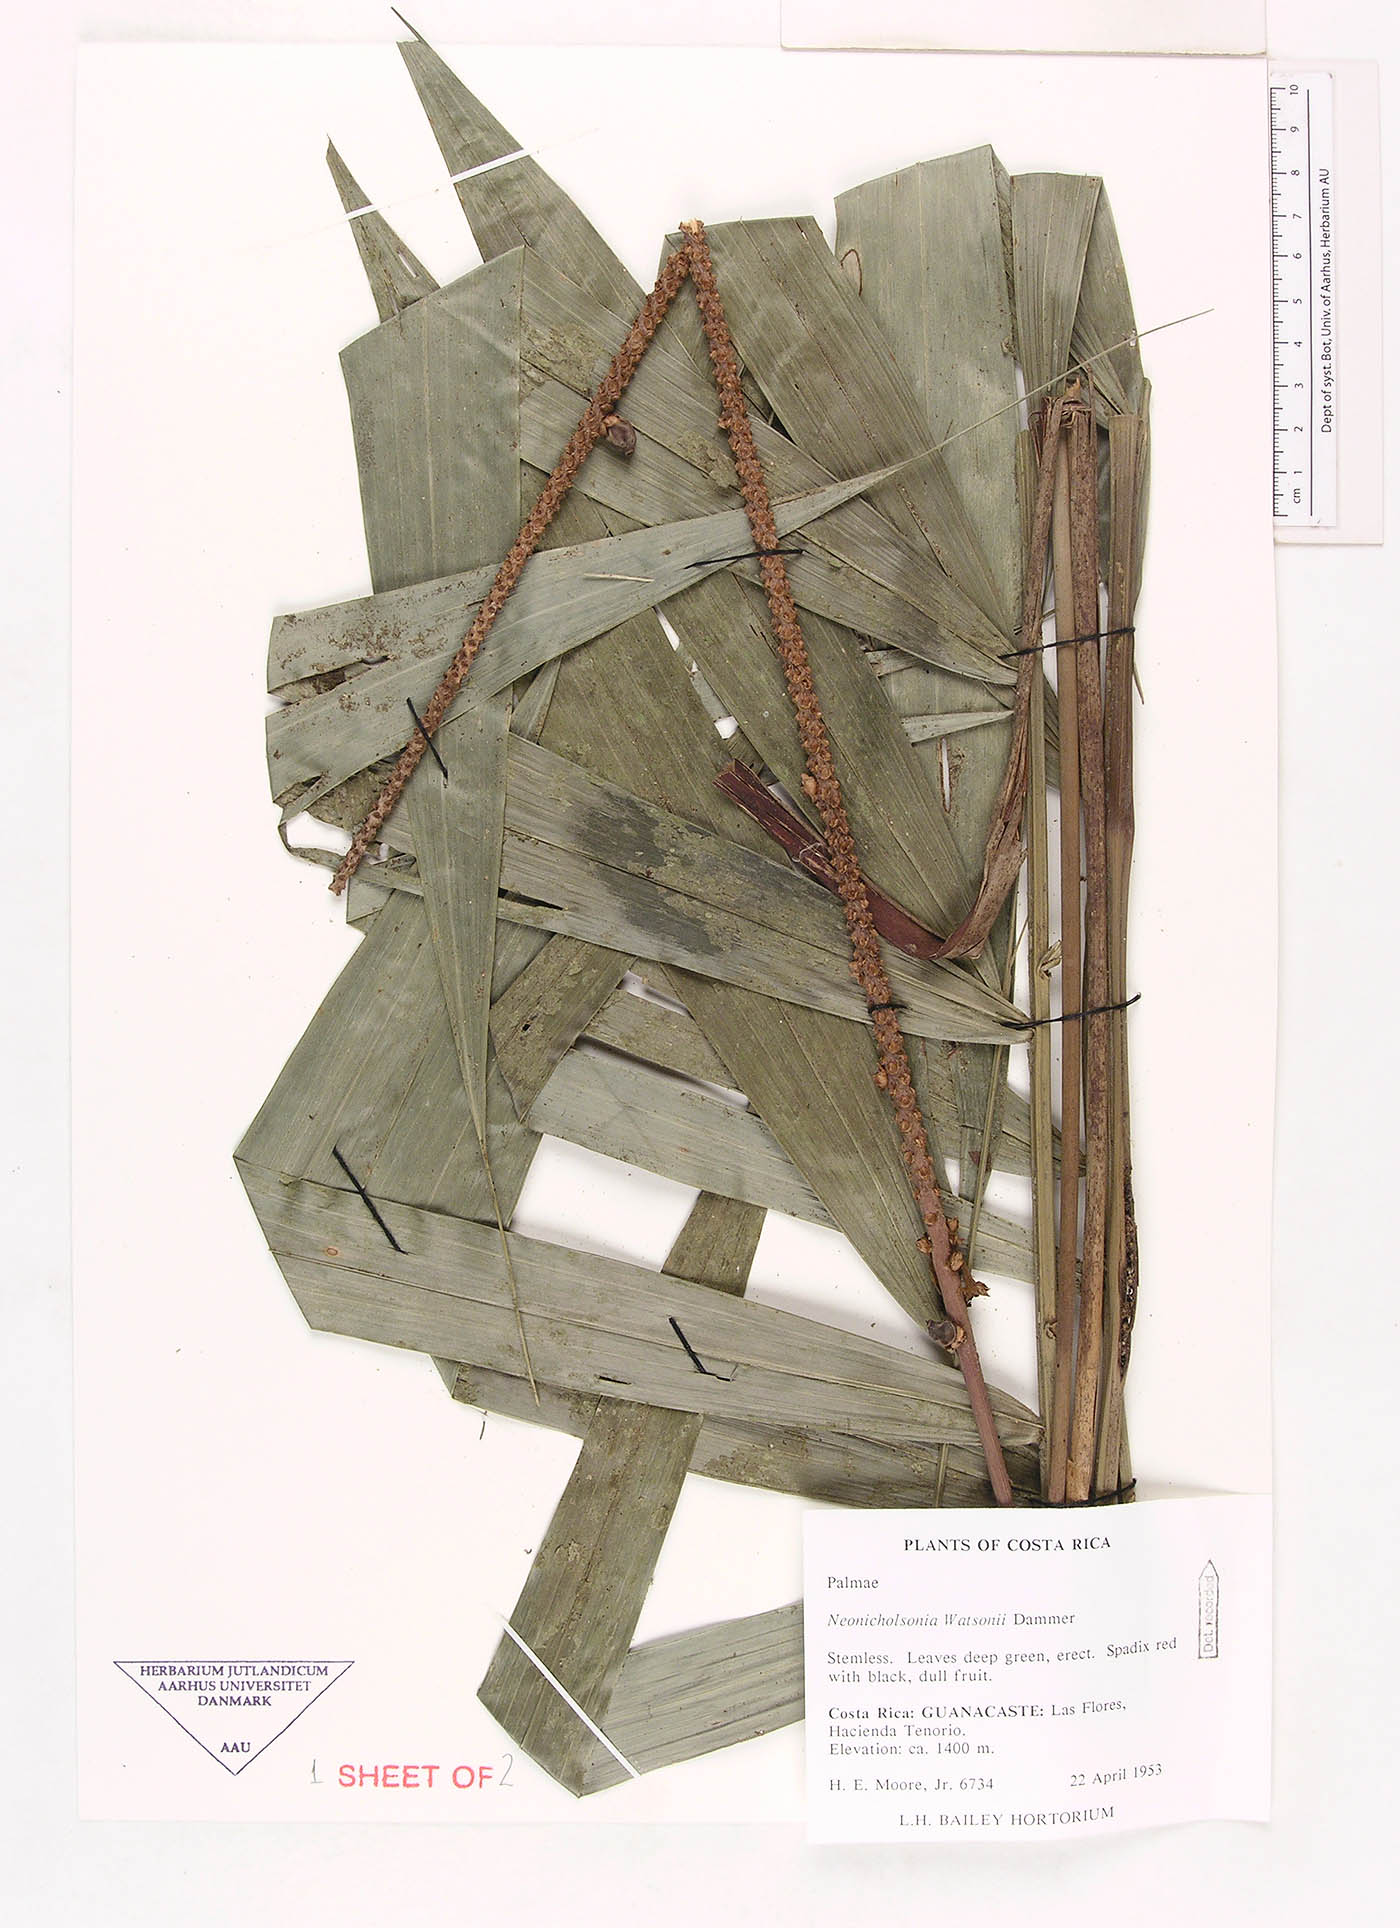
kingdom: Plantae
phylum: Tracheophyta
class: Liliopsida
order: Arecales
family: Arecaceae
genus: Neonicholsonia
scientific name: Neonicholsonia watsonii
